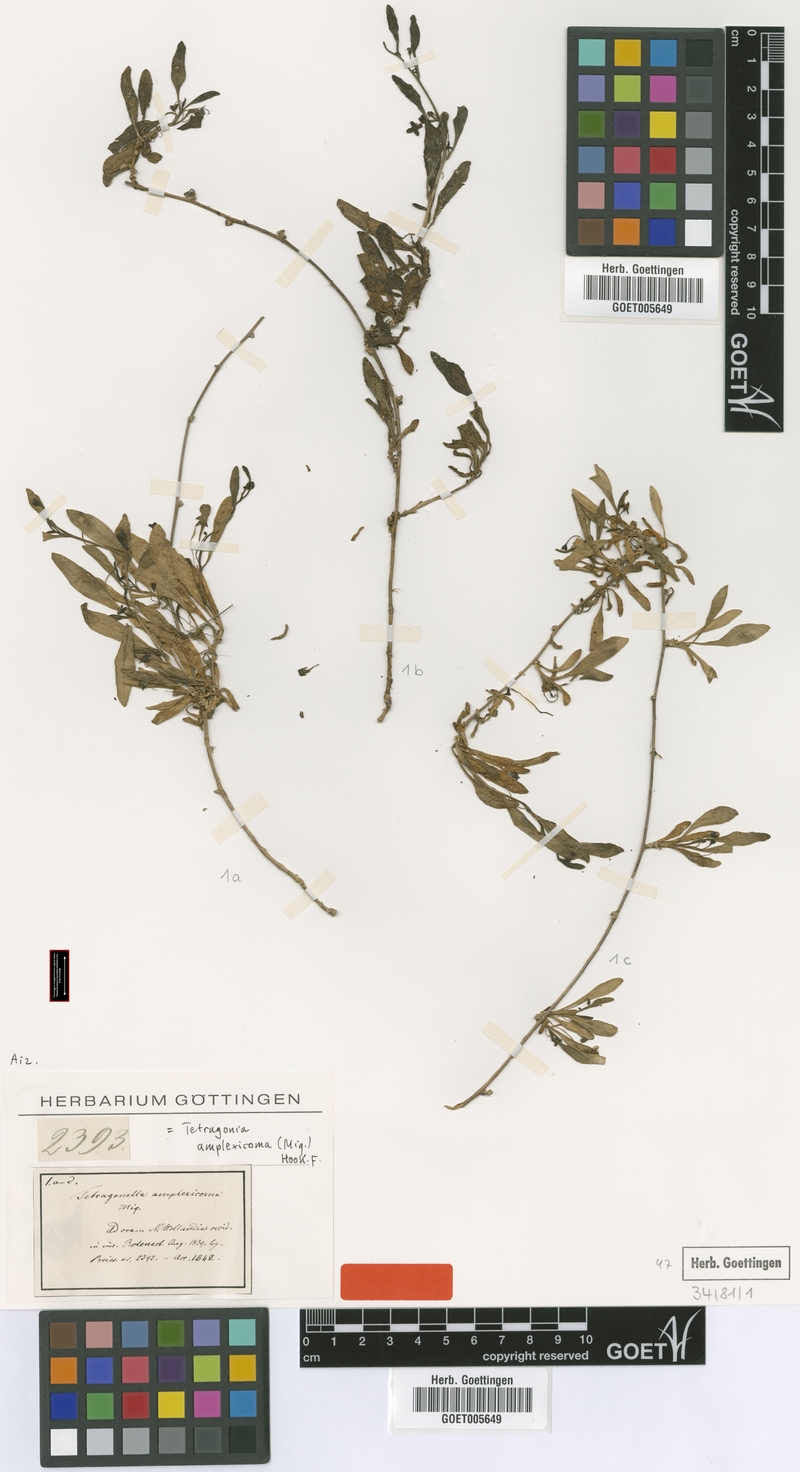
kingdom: Plantae
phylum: Tracheophyta
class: Magnoliopsida
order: Caryophyllales
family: Aizoaceae
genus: Tetragonia
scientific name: Tetragonia
